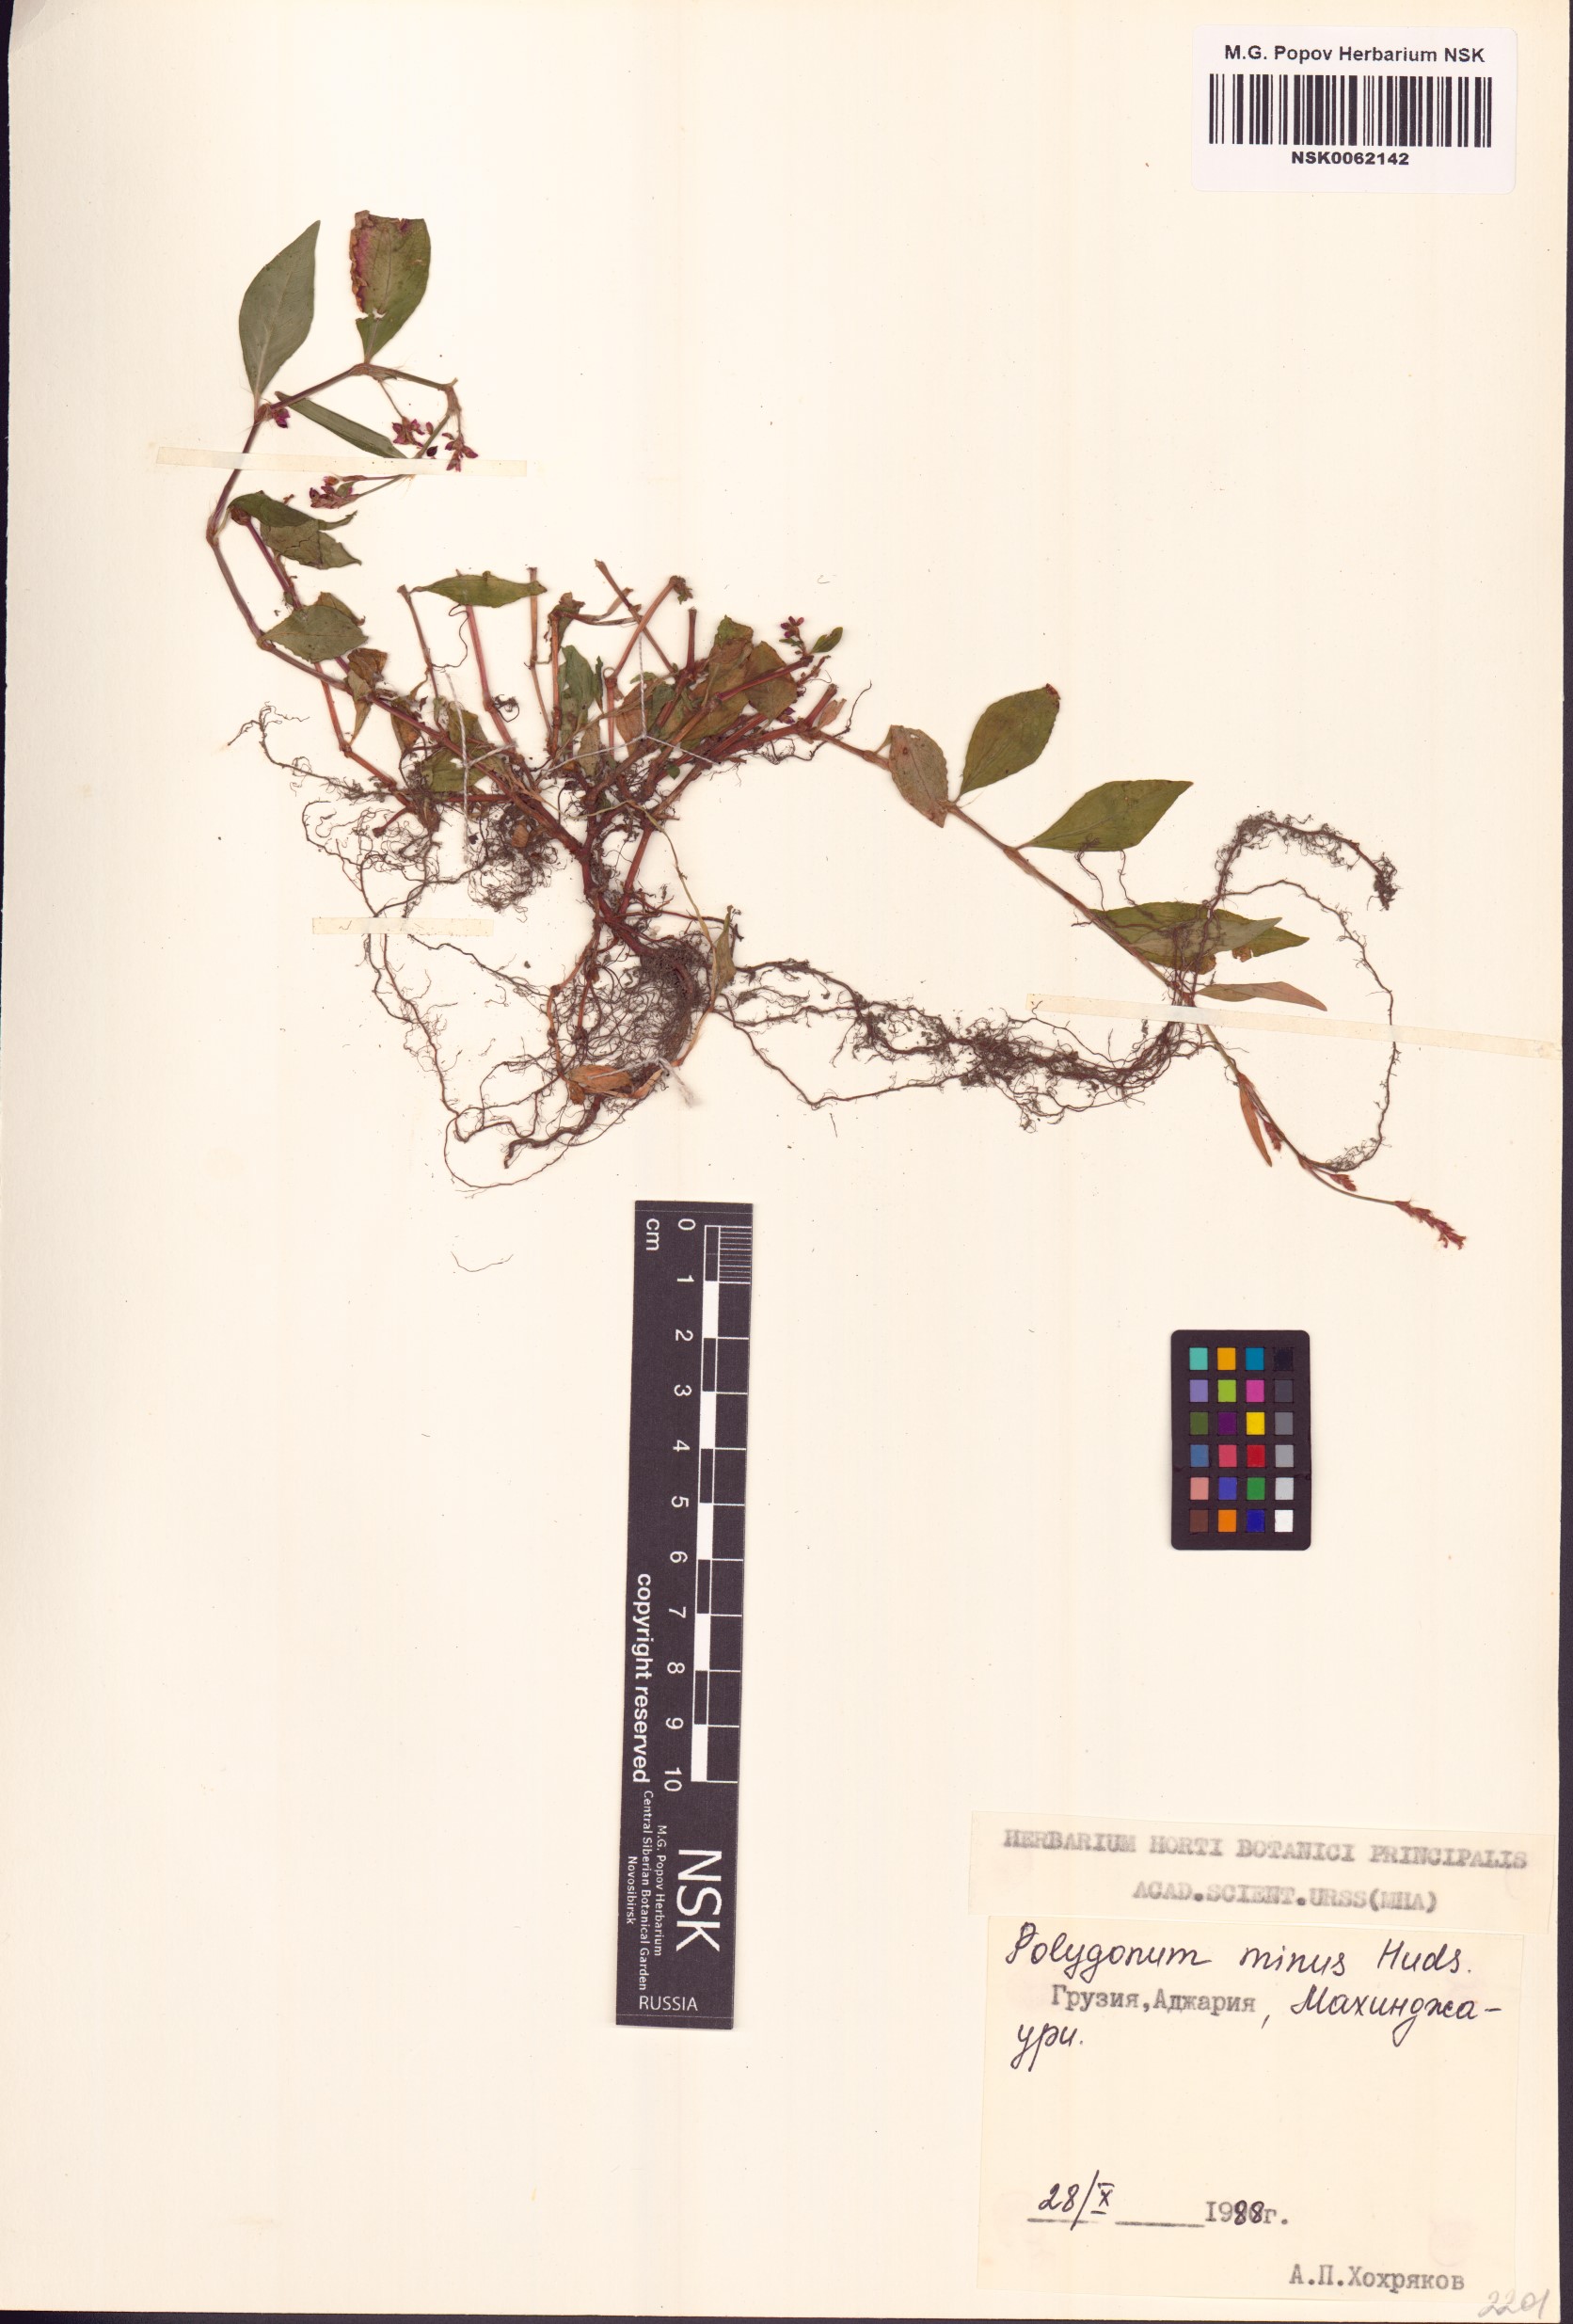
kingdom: Plantae
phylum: Tracheophyta
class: Magnoliopsida
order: Caryophyllales
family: Polygonaceae
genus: Persicaria
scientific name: Persicaria minor
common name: Small water-pepper
